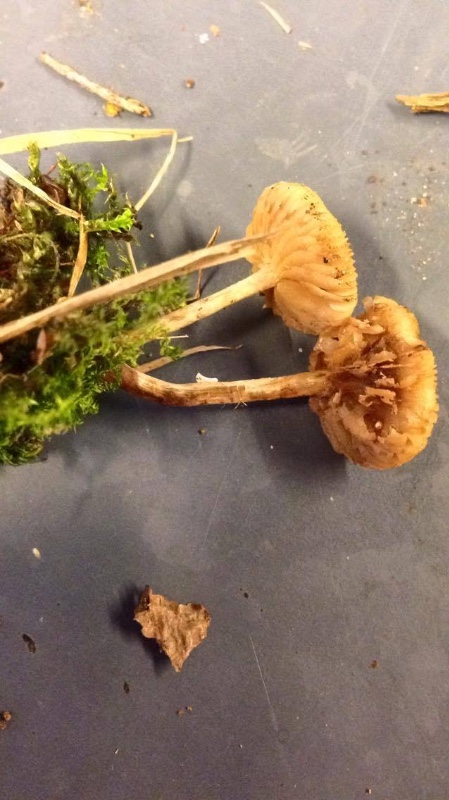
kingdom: Fungi
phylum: Basidiomycota
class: Agaricomycetes
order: Agaricales
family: Hymenogastraceae
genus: Naucoria
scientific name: Naucoria bohemica
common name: birke-knaphat
